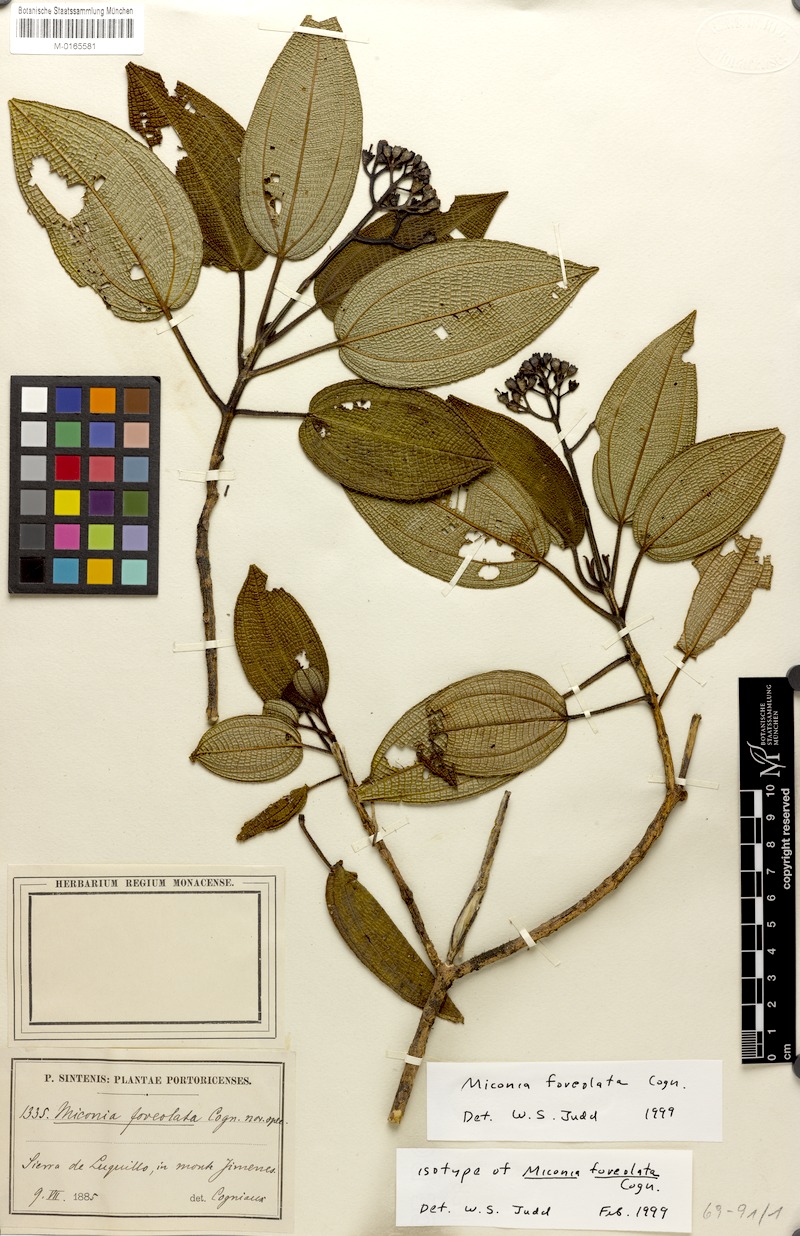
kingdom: Plantae
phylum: Tracheophyta
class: Magnoliopsida
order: Myrtales
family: Melastomataceae
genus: Miconia
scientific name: Miconia foveolata
